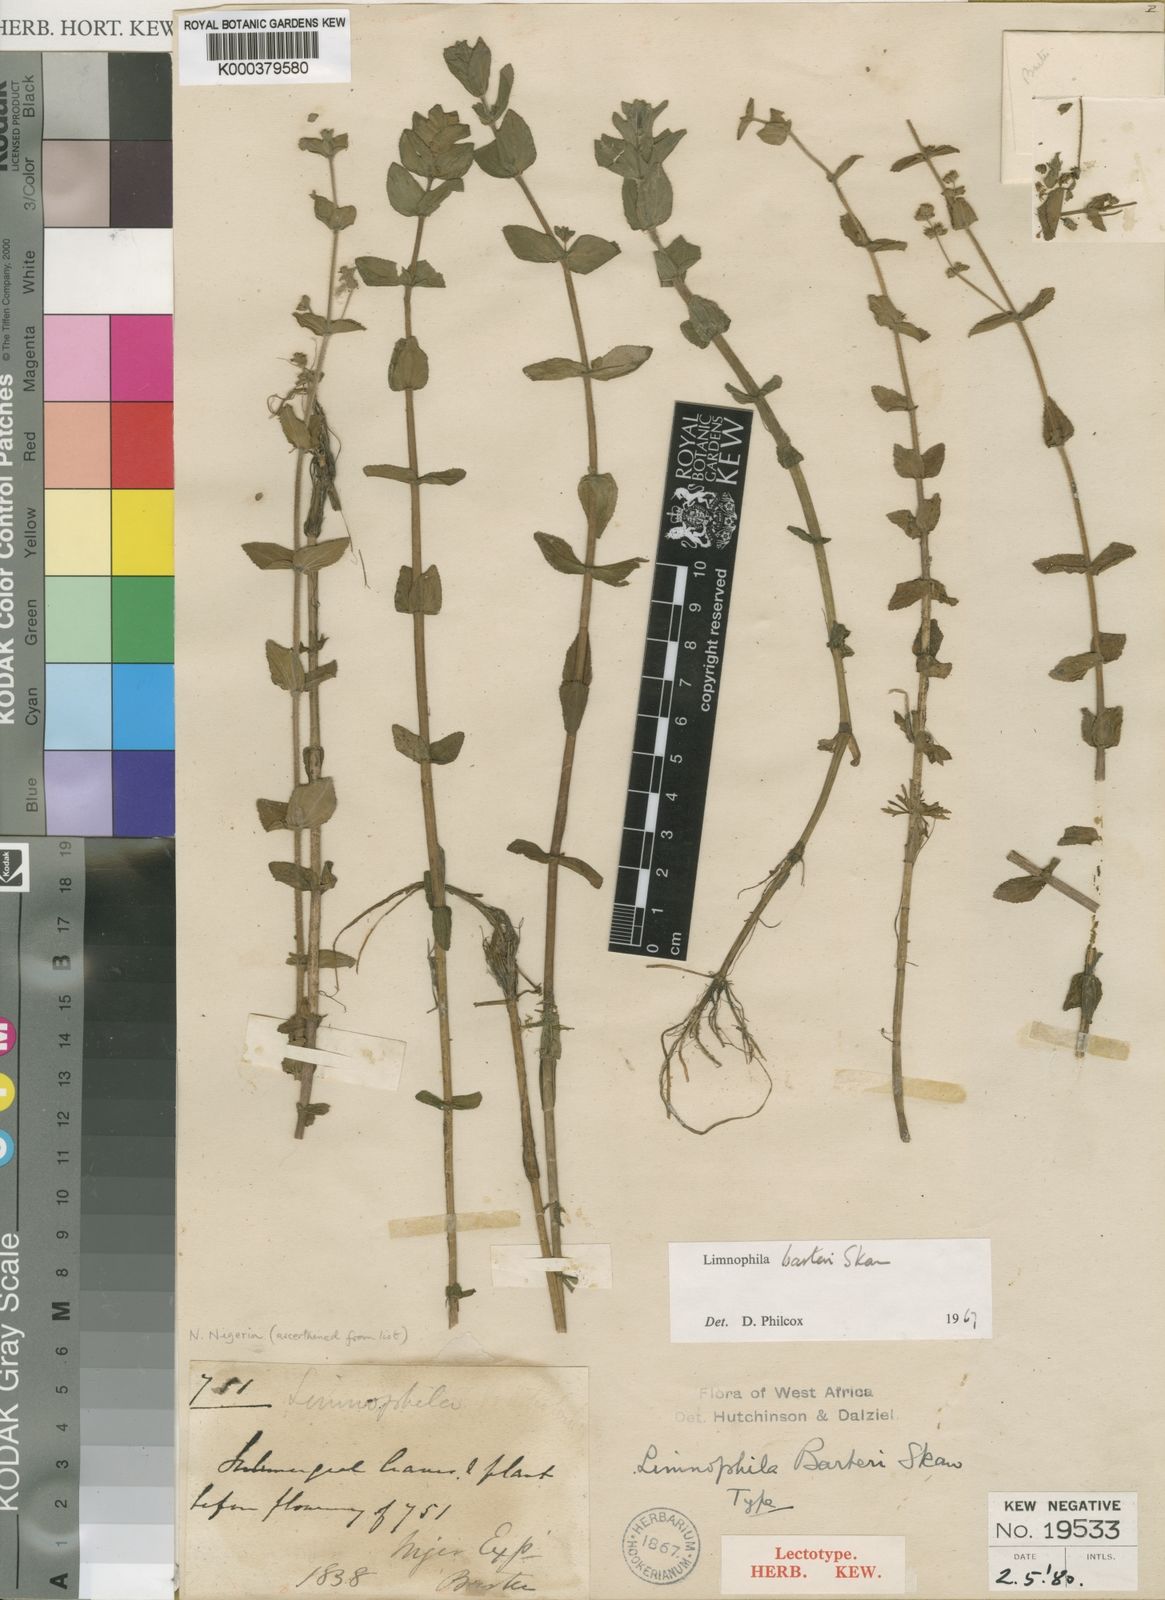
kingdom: Plantae
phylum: Tracheophyta
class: Magnoliopsida
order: Lamiales
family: Plantaginaceae
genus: Limnophila
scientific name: Limnophila barteri
